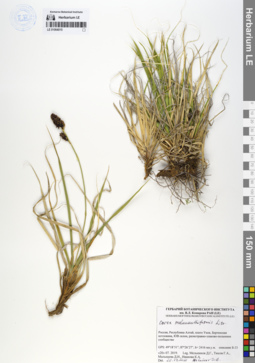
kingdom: Plantae
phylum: Tracheophyta
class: Liliopsida
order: Poales
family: Cyperaceae
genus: Carex
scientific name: Carex melananthiformis
